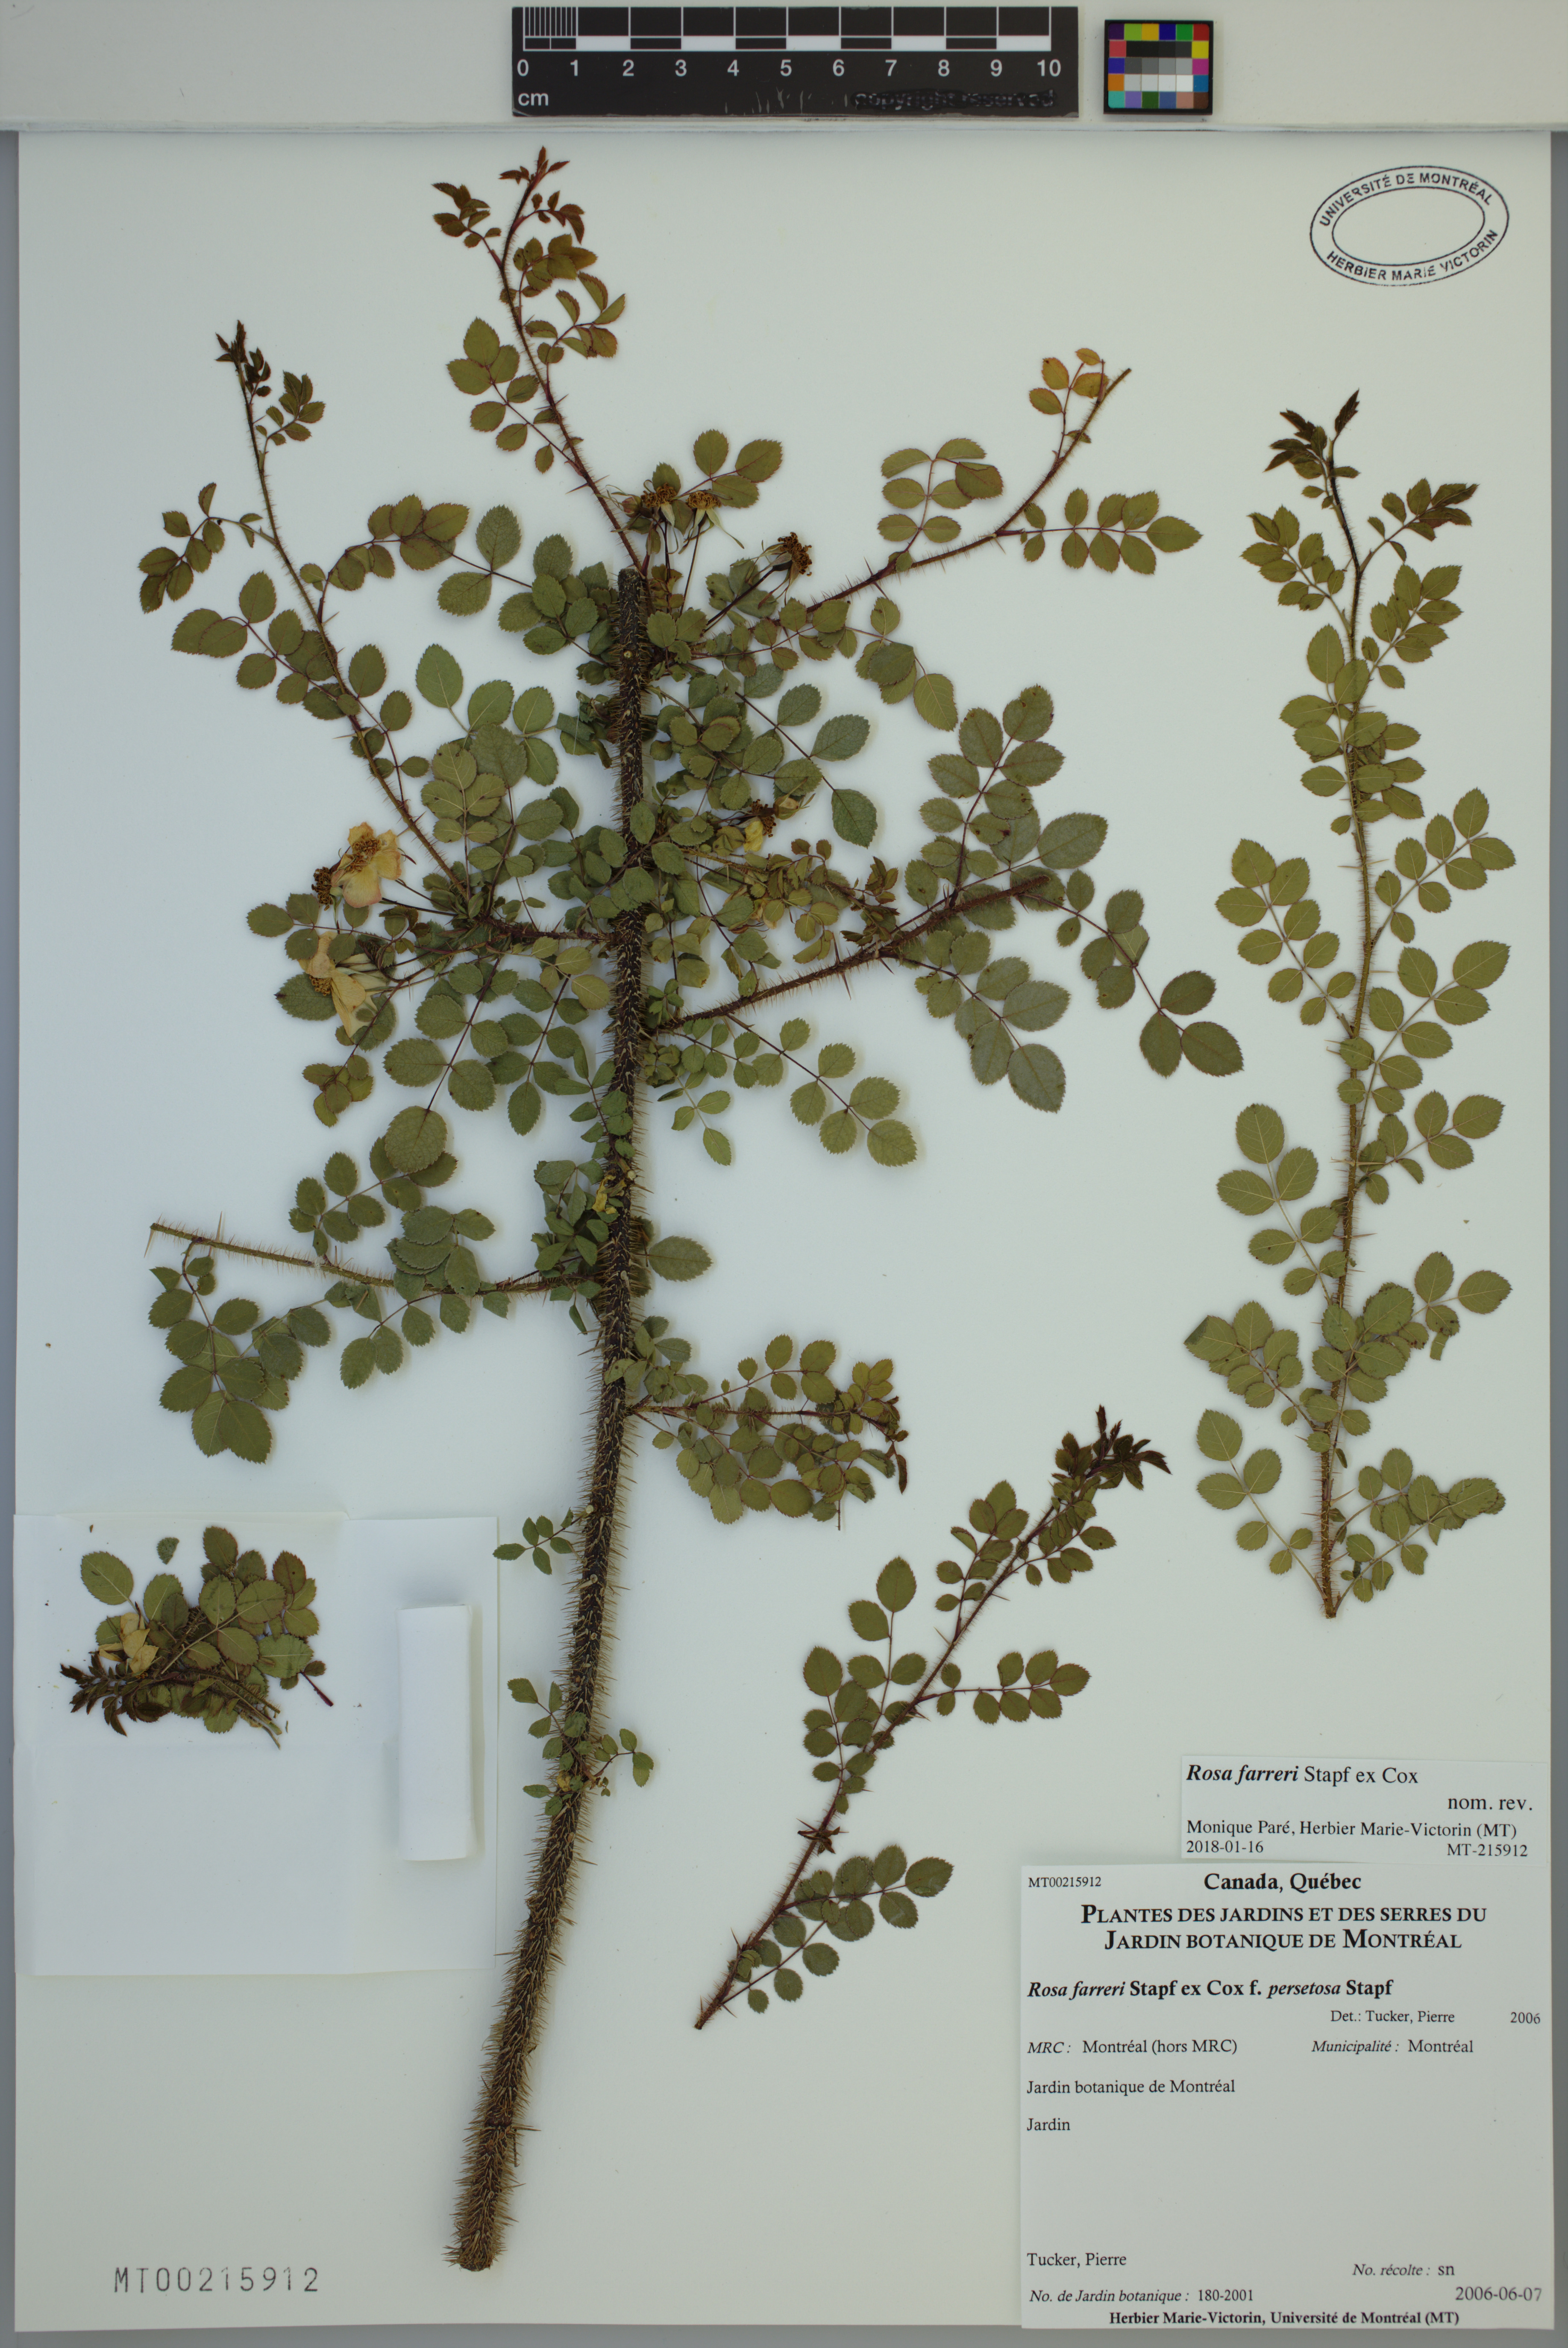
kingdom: Plantae
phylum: Tracheophyta
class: Magnoliopsida
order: Rosales
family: Rosaceae
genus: Rosa
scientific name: Rosa farreri
